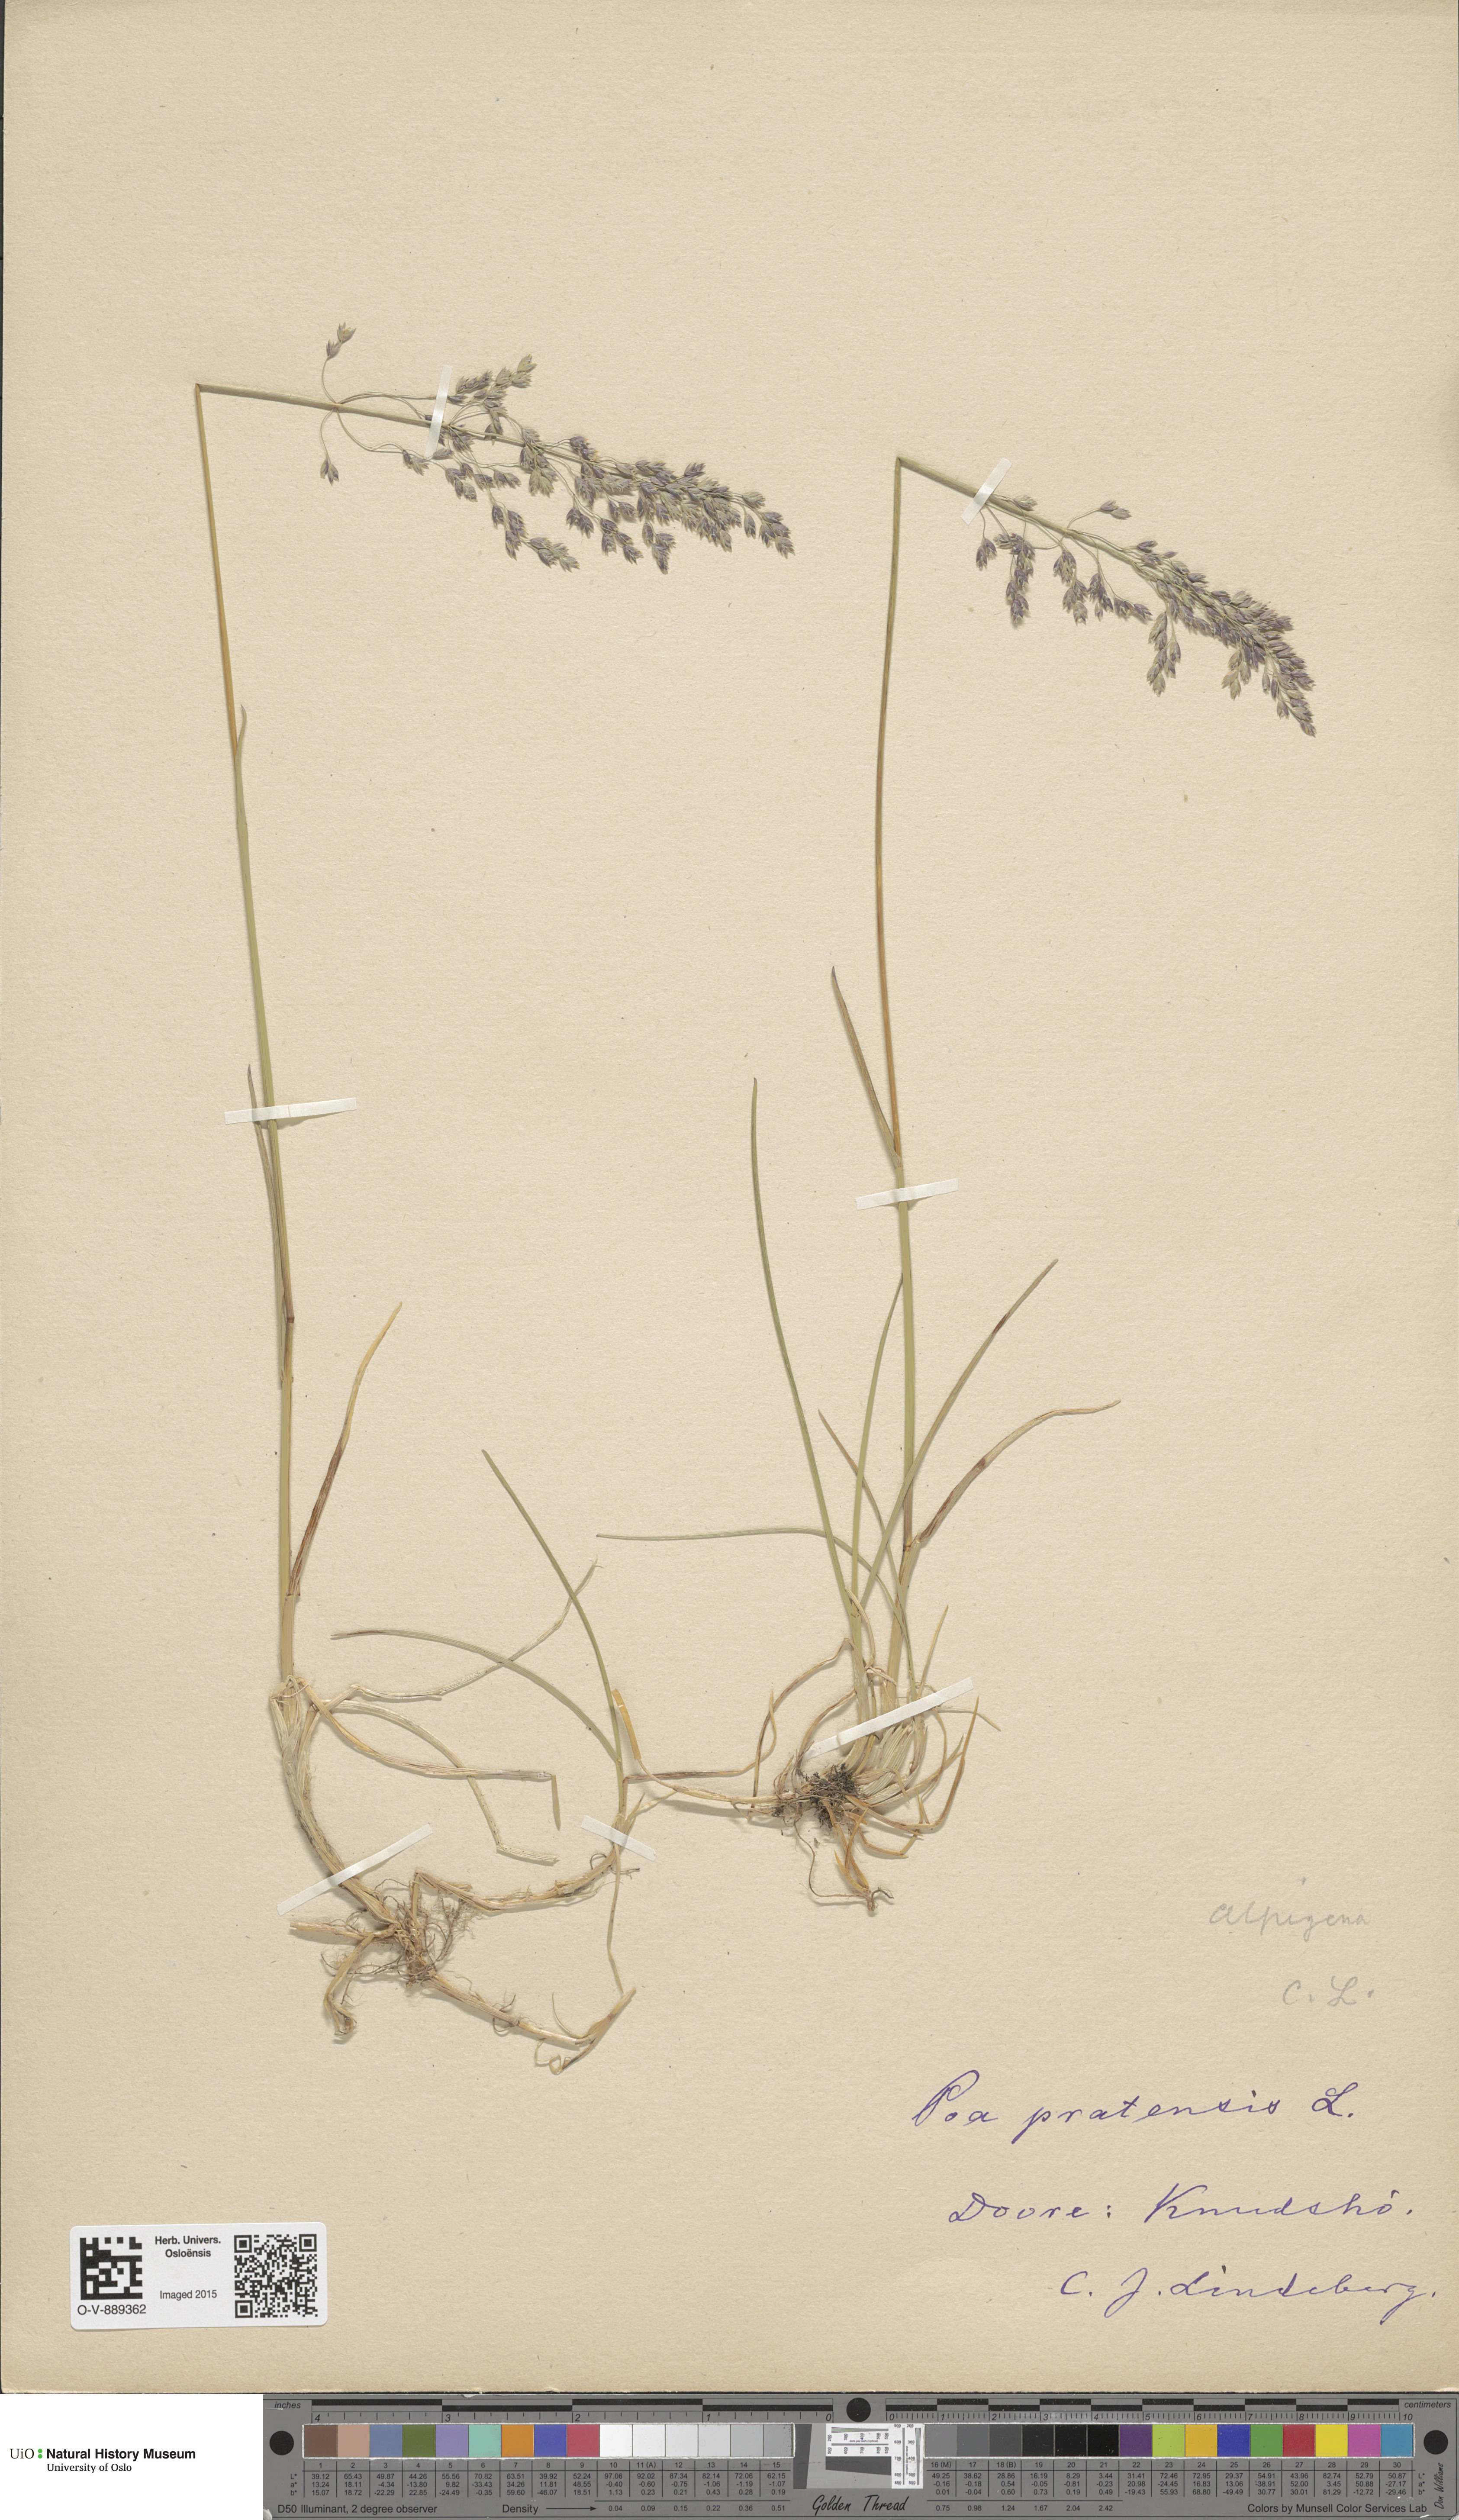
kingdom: Plantae
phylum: Tracheophyta
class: Liliopsida
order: Poales
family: Poaceae
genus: Poa
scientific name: Poa alpigena
